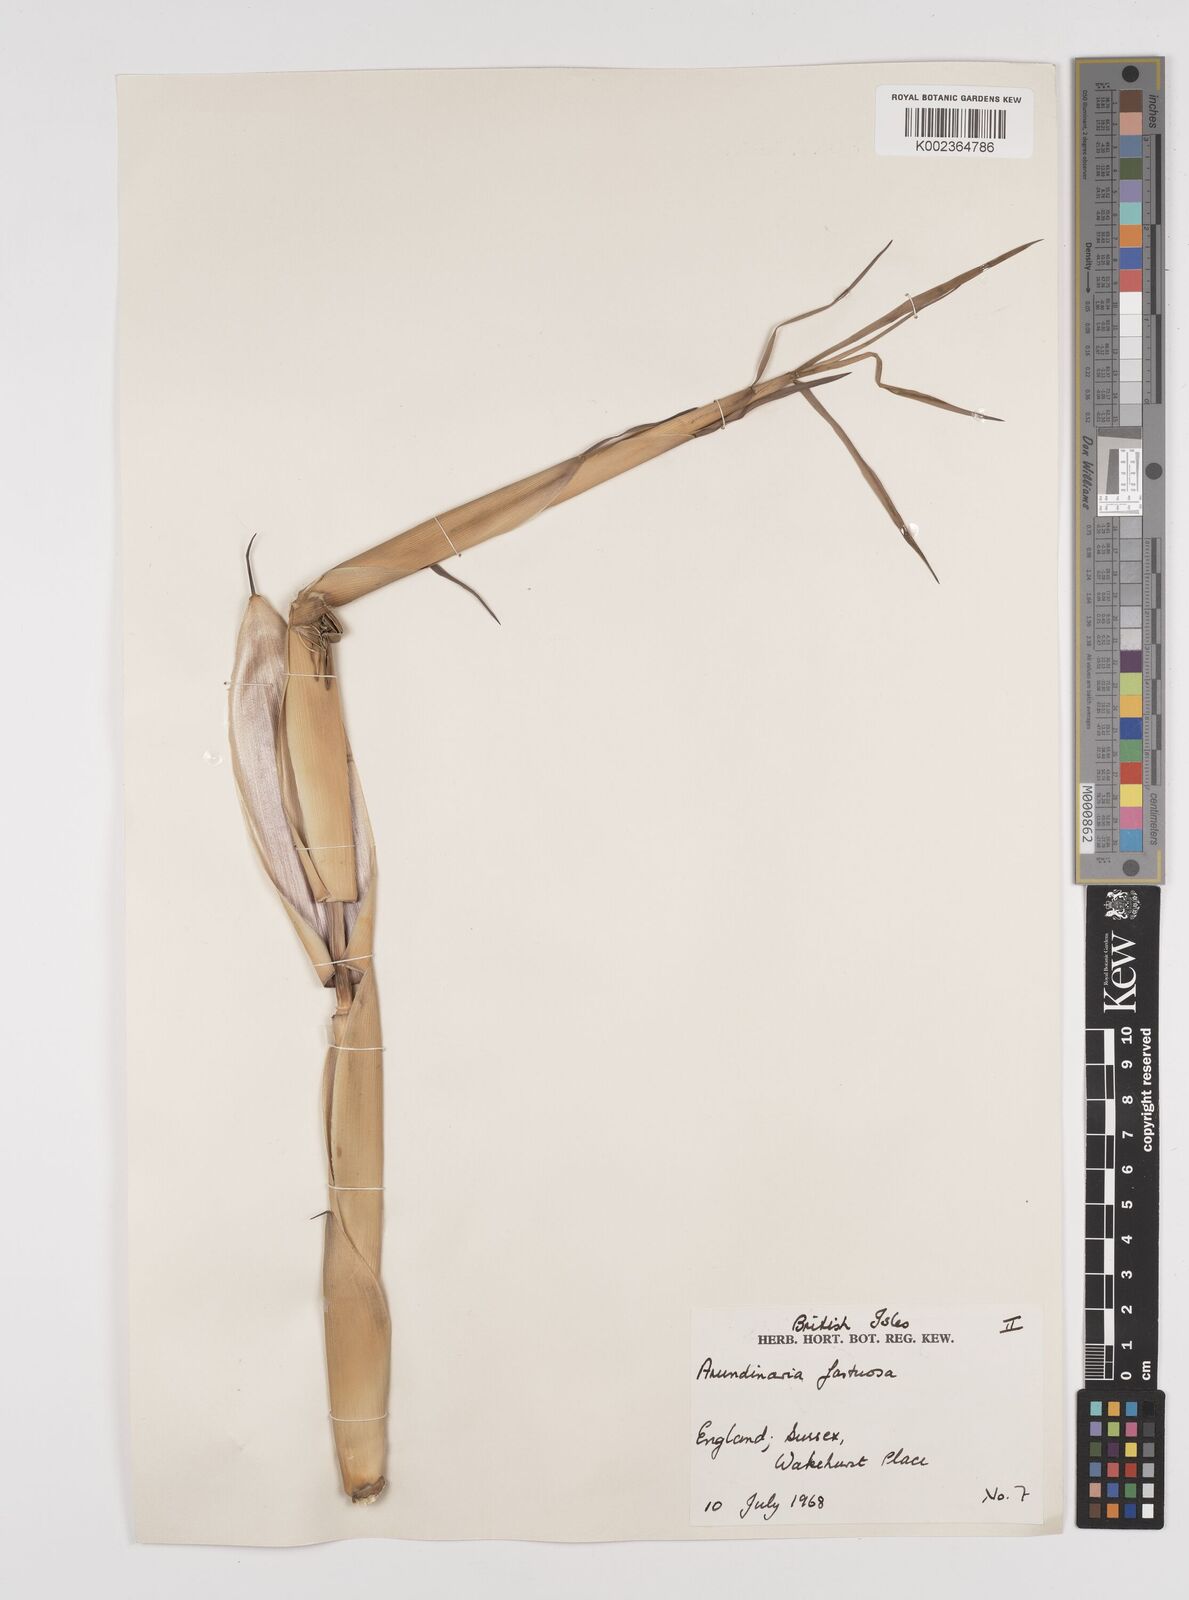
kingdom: Plantae
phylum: Tracheophyta
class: Liliopsida
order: Poales
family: Poaceae
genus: Semiarundinaria
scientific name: Semiarundinaria fastuosa
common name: Narihira bamboo
